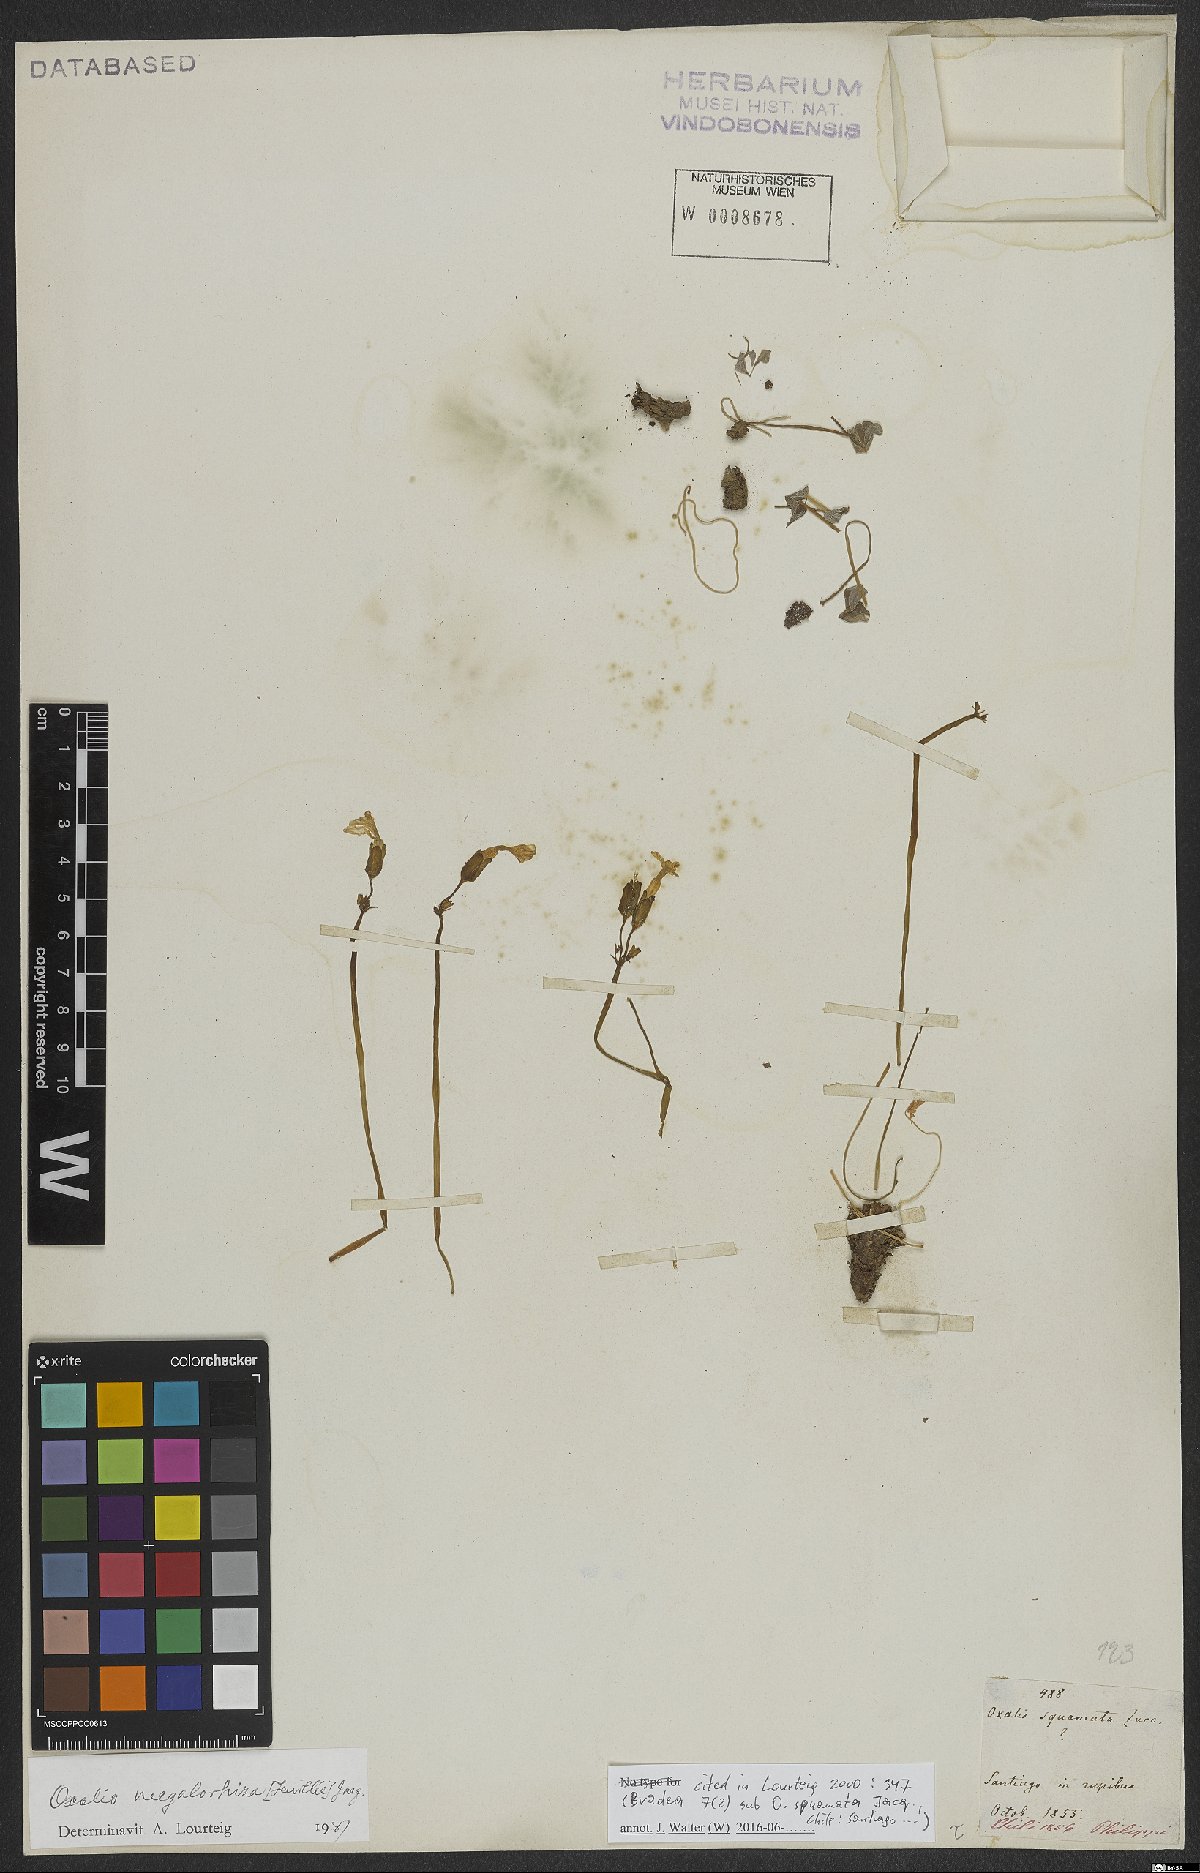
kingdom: Plantae
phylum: Tracheophyta
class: Magnoliopsida
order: Oxalidales
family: Oxalidaceae
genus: Oxalis
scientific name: Oxalis megalorrhiza
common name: Fleshy yellow-sorrel
